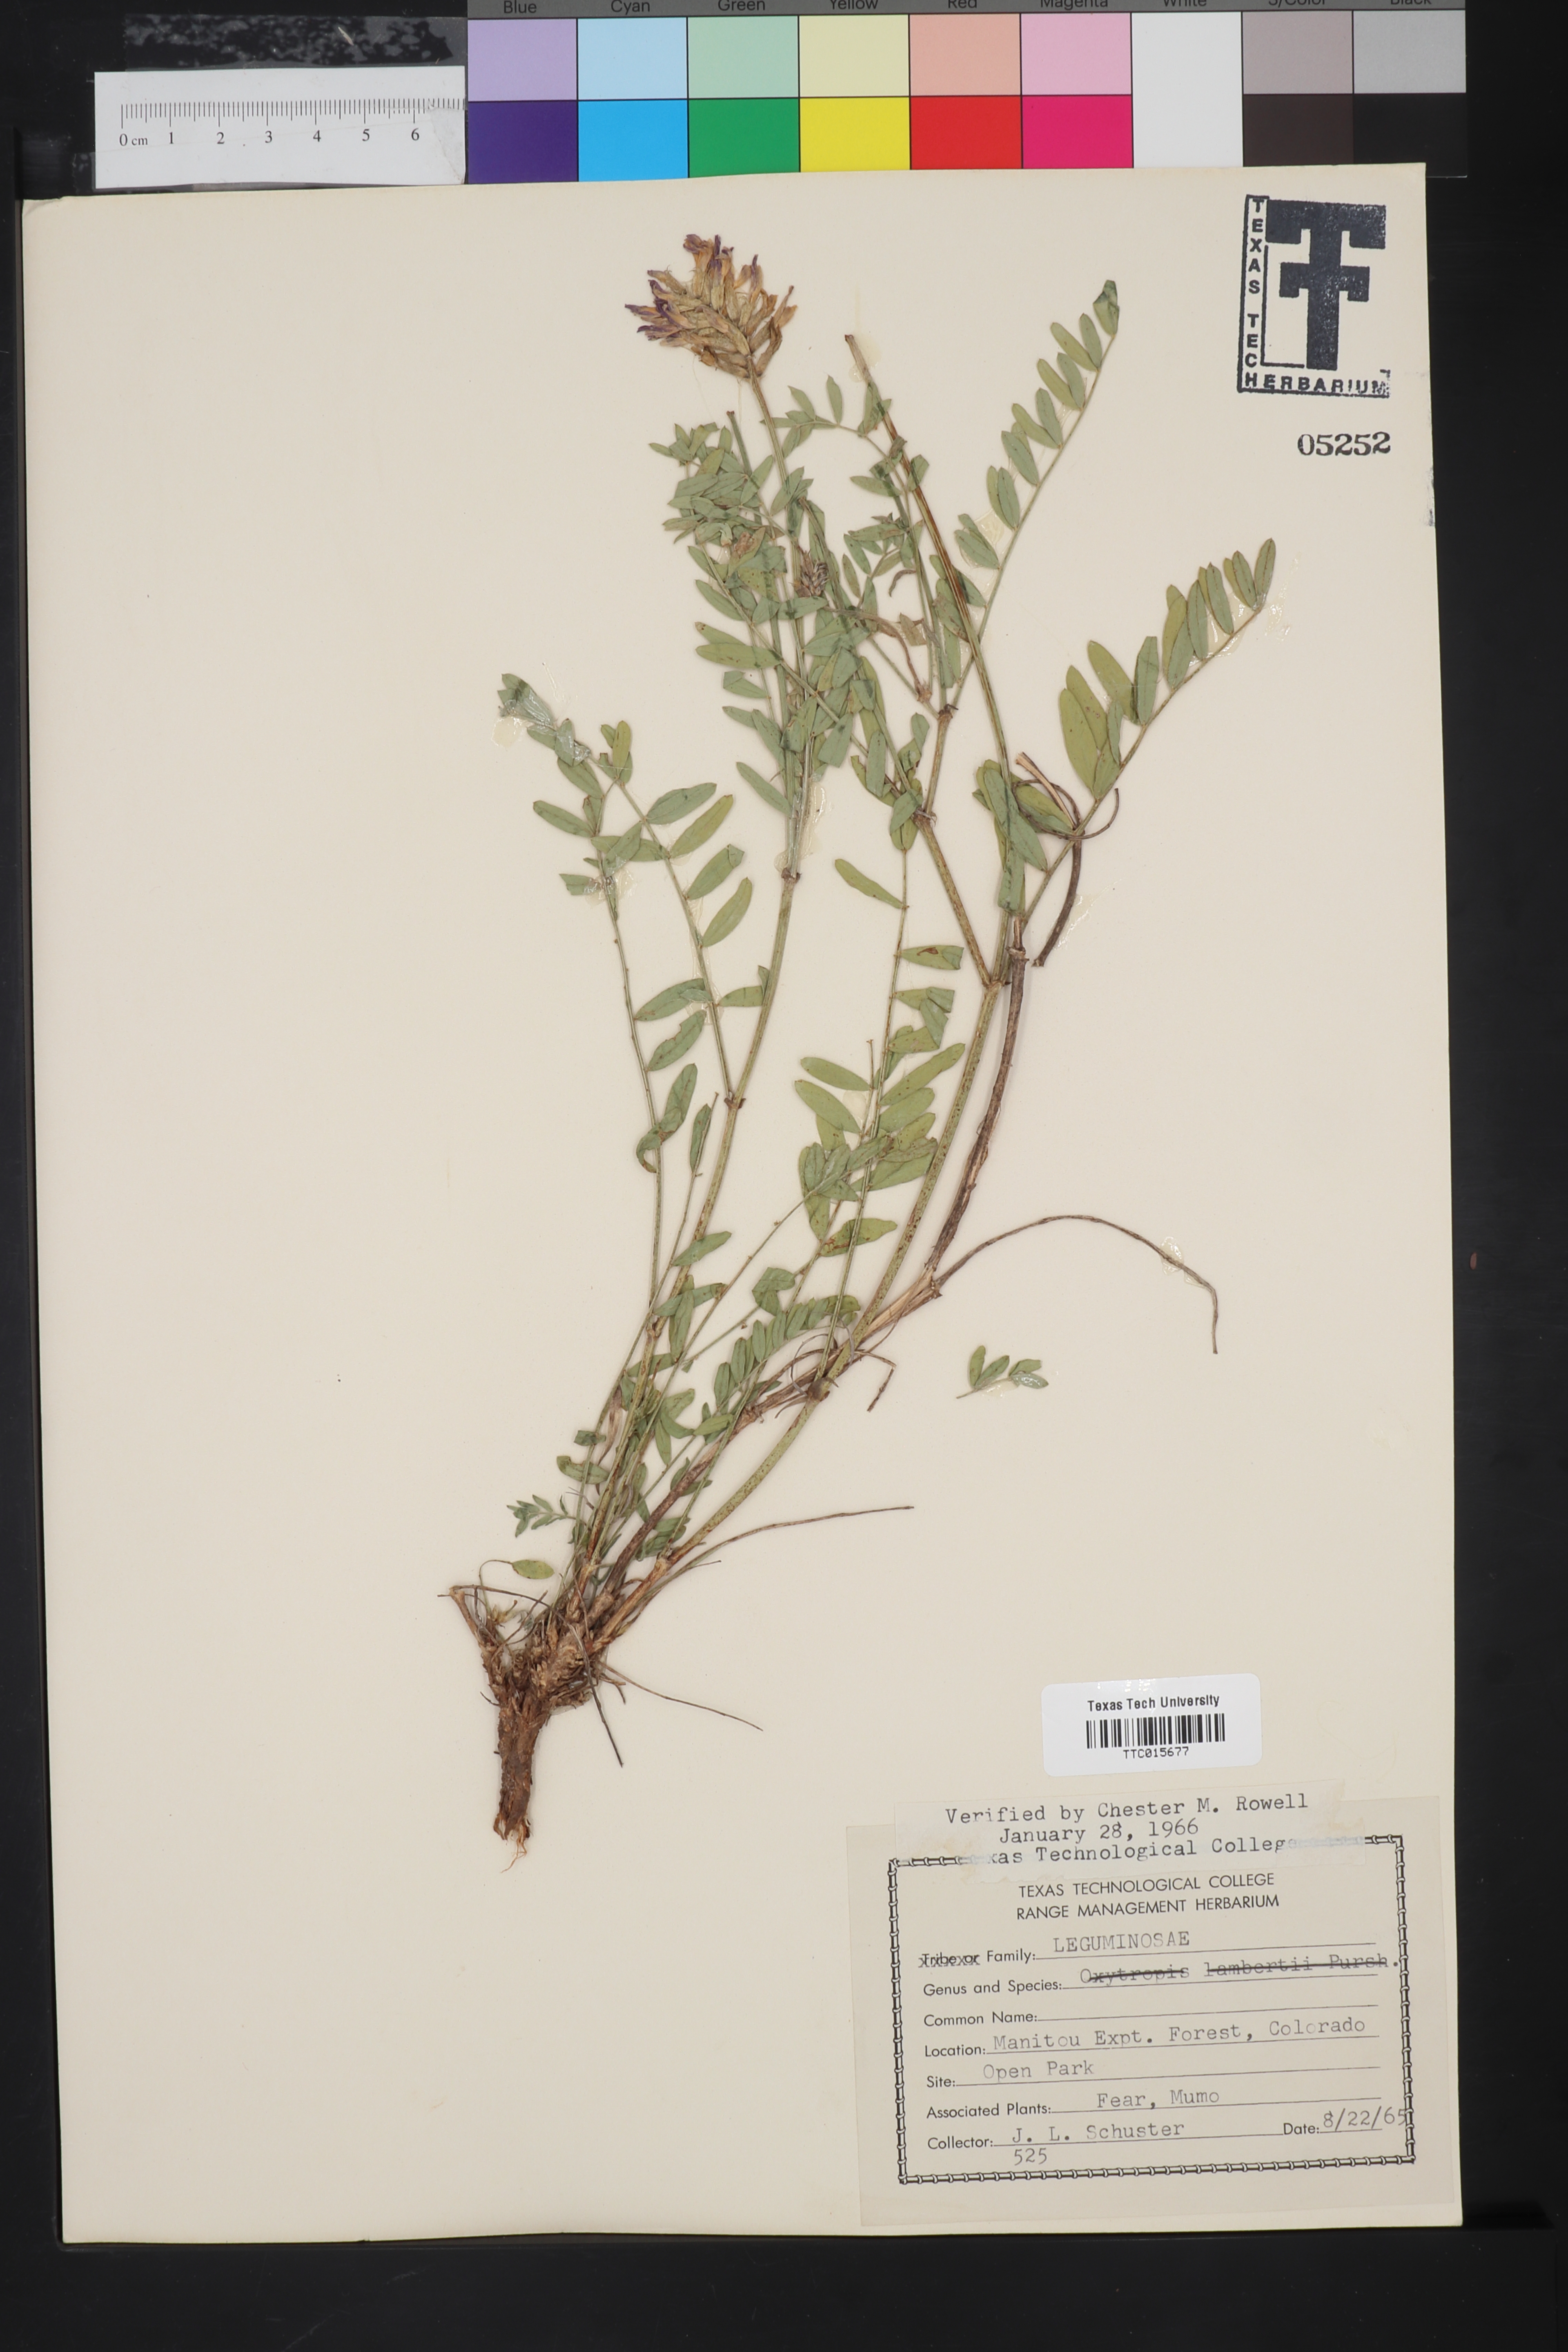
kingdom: Plantae
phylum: Tracheophyta
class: Magnoliopsida
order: Fabales
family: Fabaceae
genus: Oxytropis
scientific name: Oxytropis lambertii
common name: Purple locoweed
